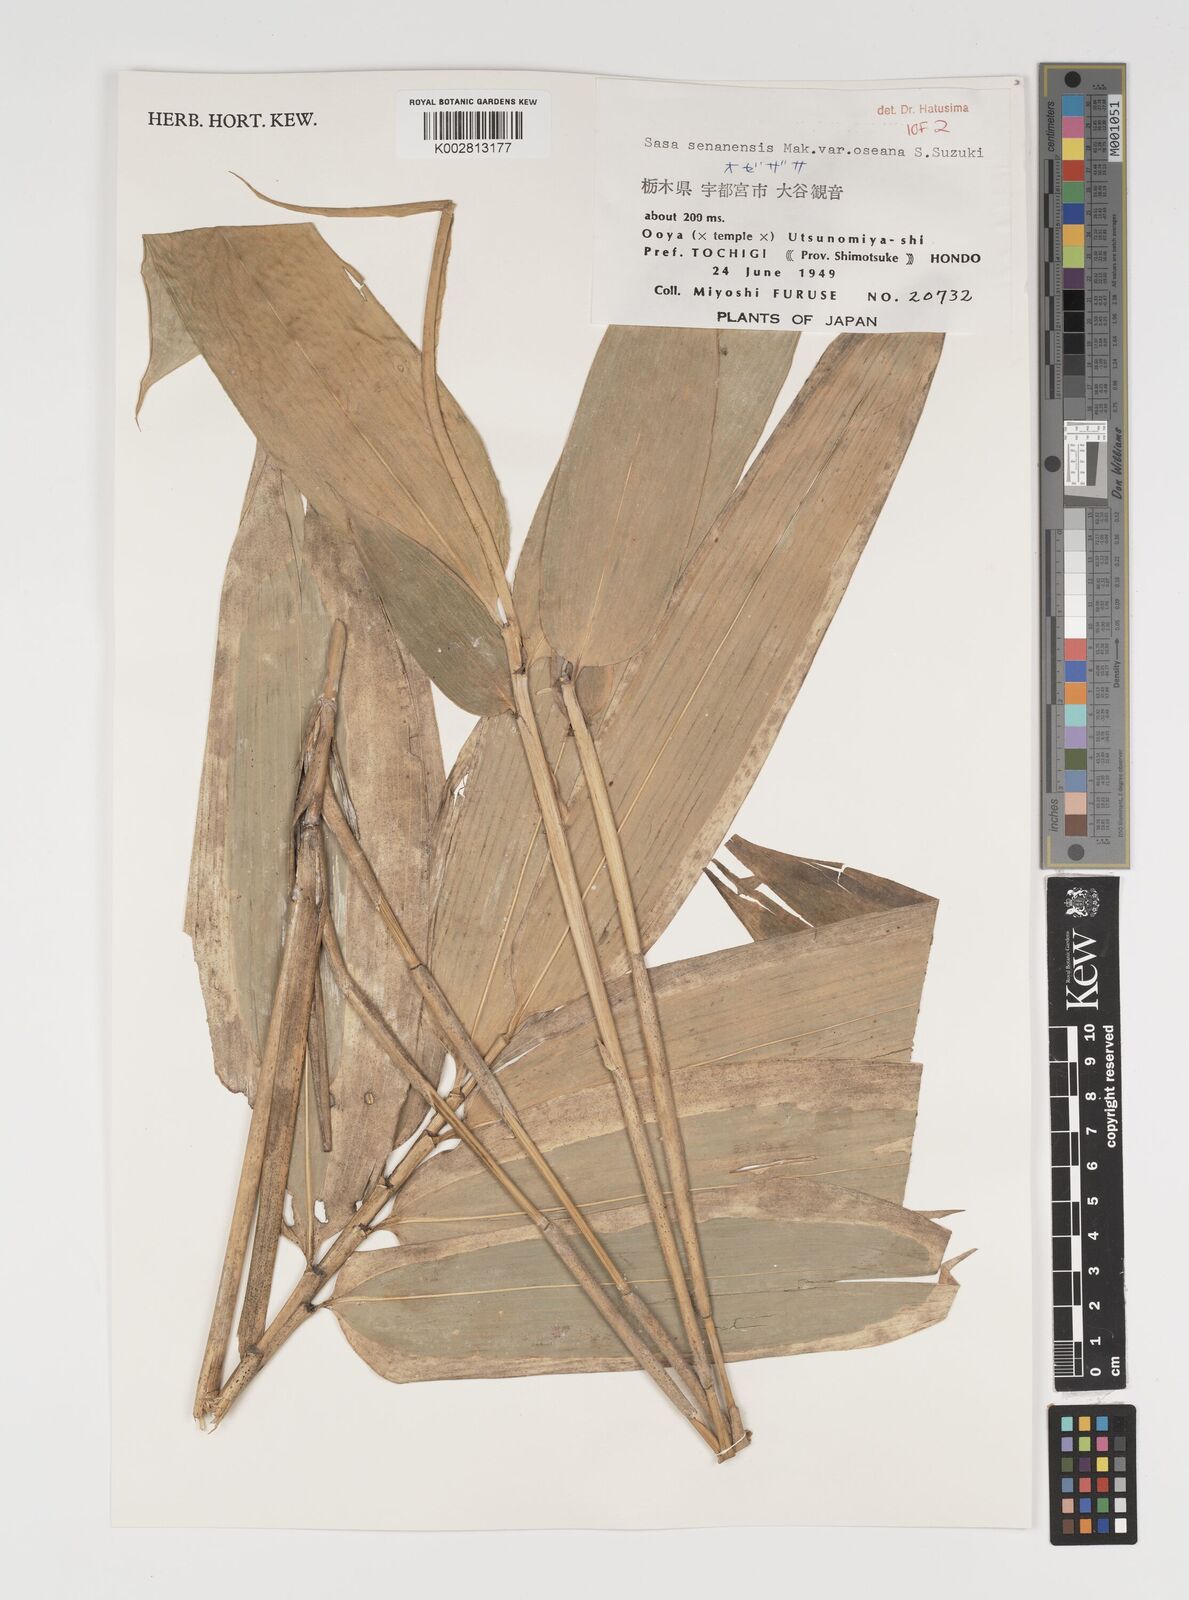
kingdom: Plantae
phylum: Tracheophyta
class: Liliopsida
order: Poales
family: Poaceae
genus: Sasa
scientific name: Sasa senanensis
